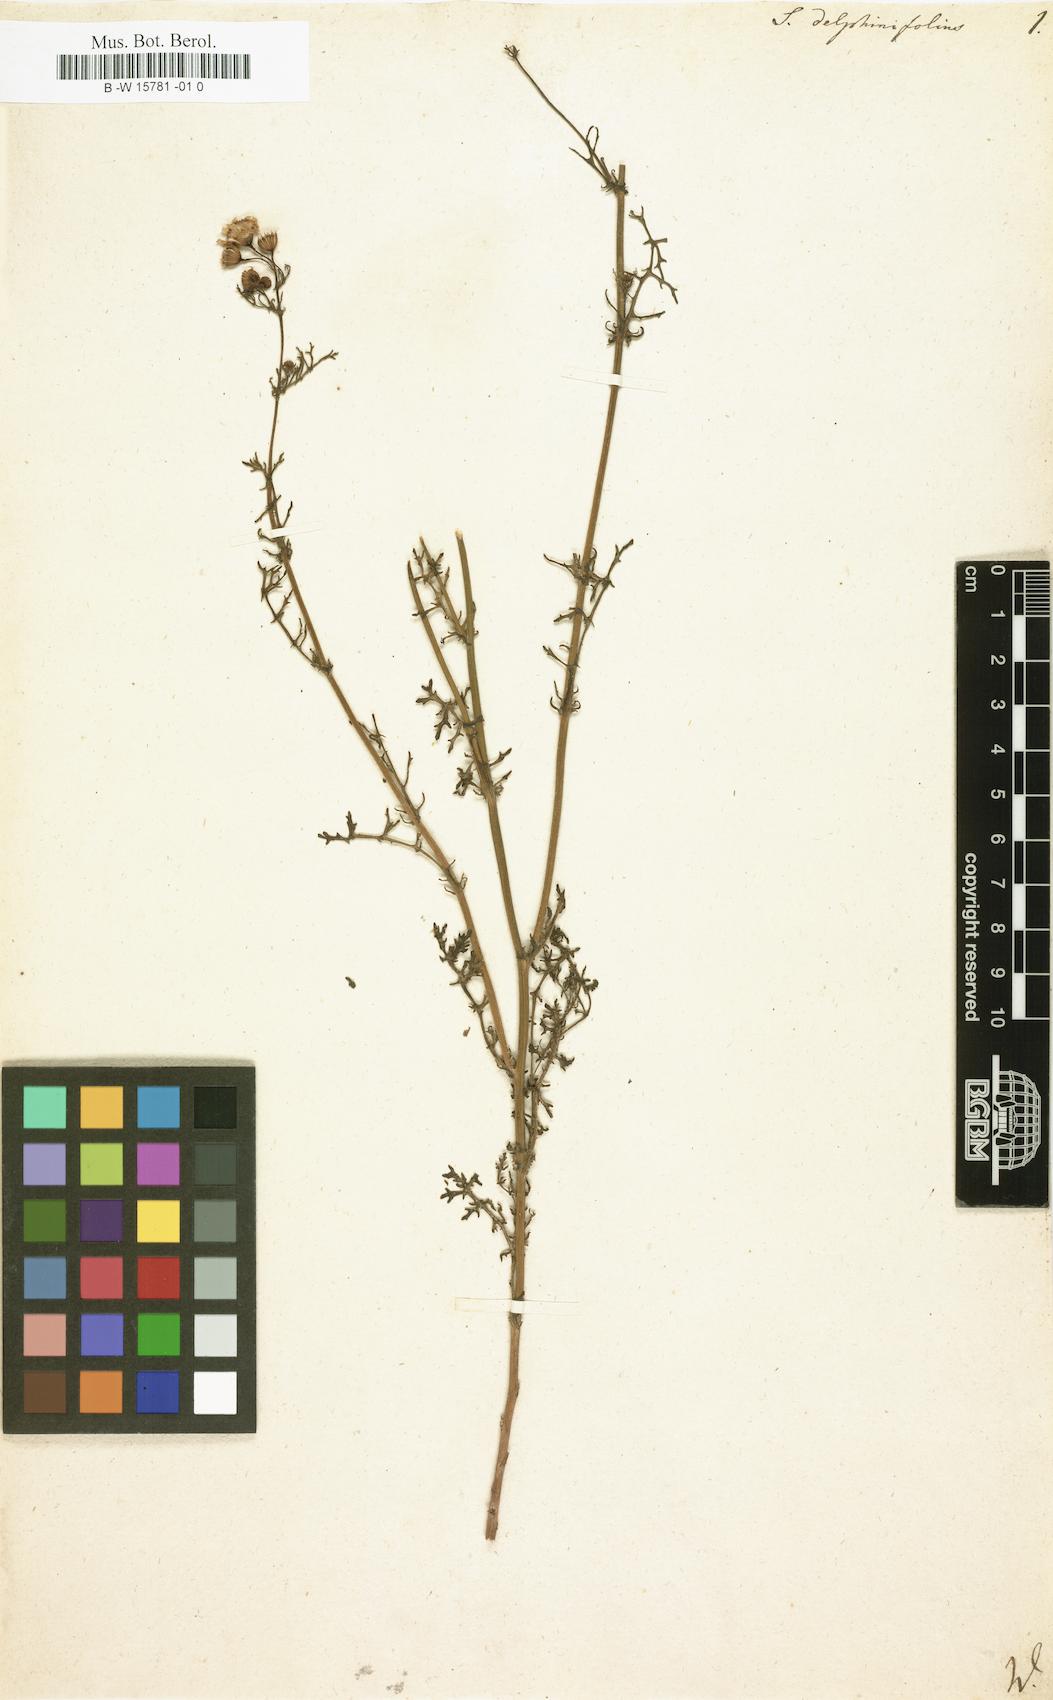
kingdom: Plantae
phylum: Tracheophyta
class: Magnoliopsida
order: Asterales
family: Asteraceae
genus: Jacobaea
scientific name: Jacobaea delphiniifolia
